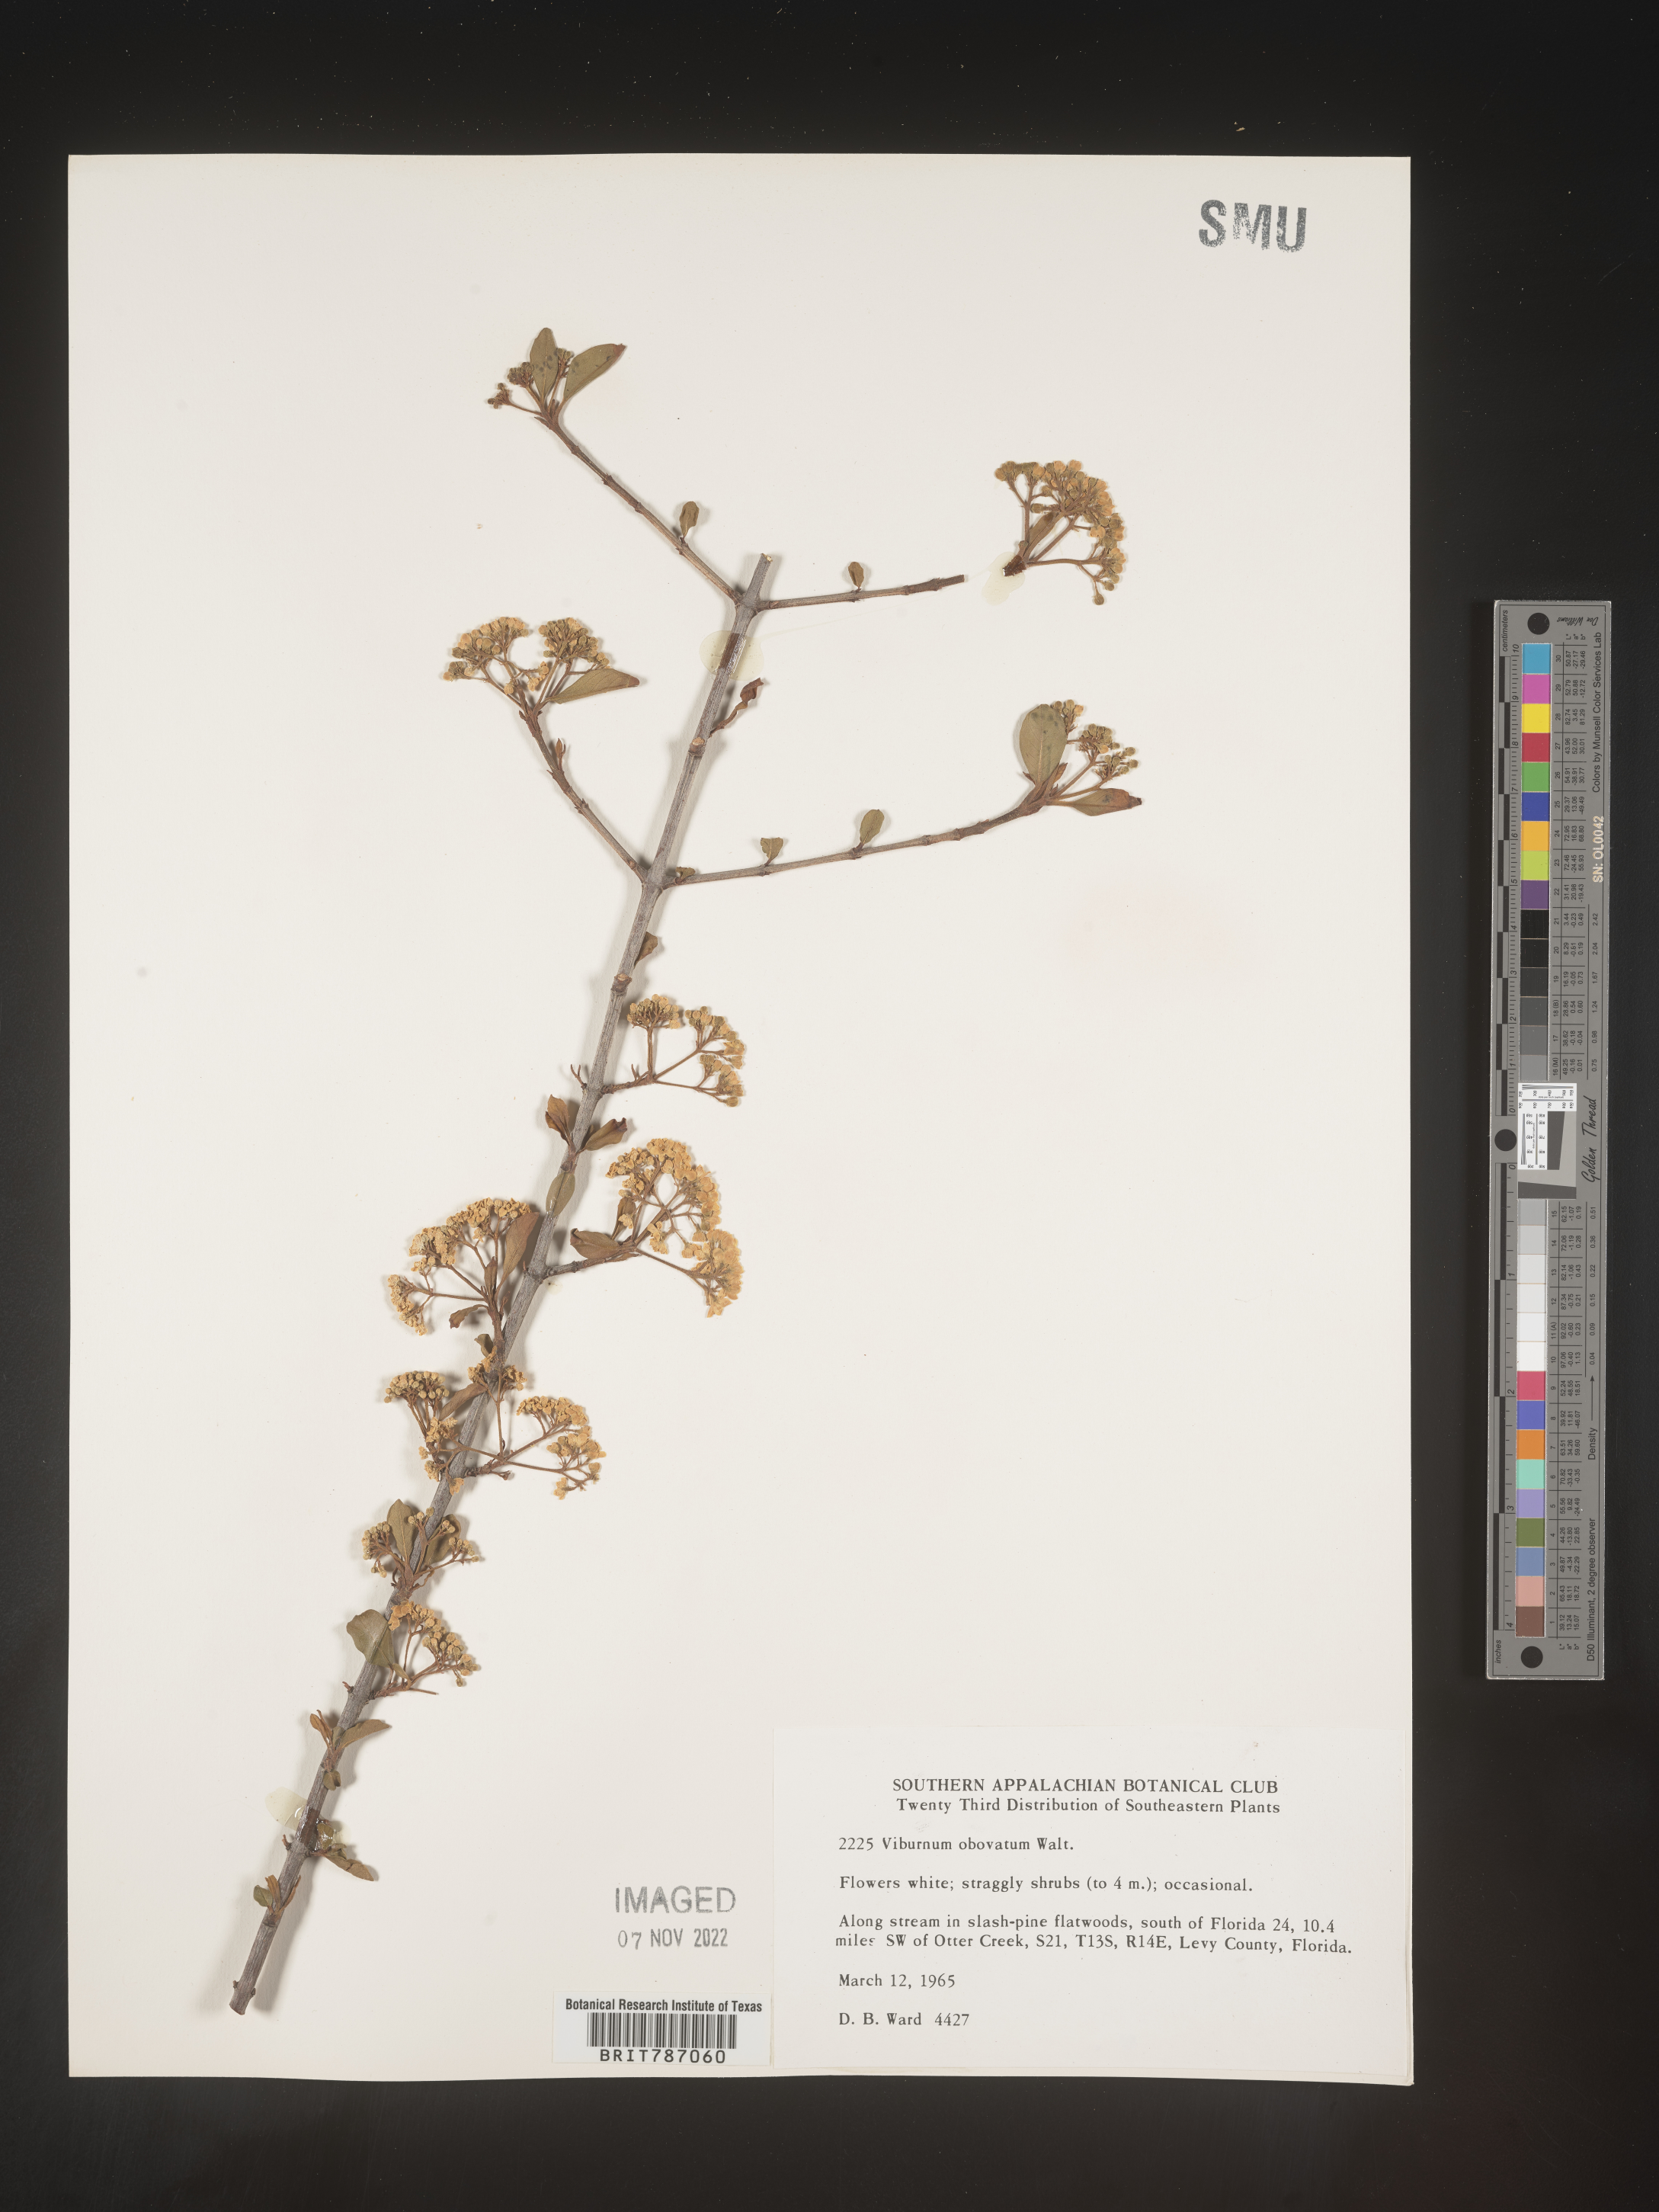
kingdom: Plantae
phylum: Tracheophyta
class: Magnoliopsida
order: Dipsacales
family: Viburnaceae
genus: Viburnum
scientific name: Viburnum obovatum
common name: Walter's viburnum
